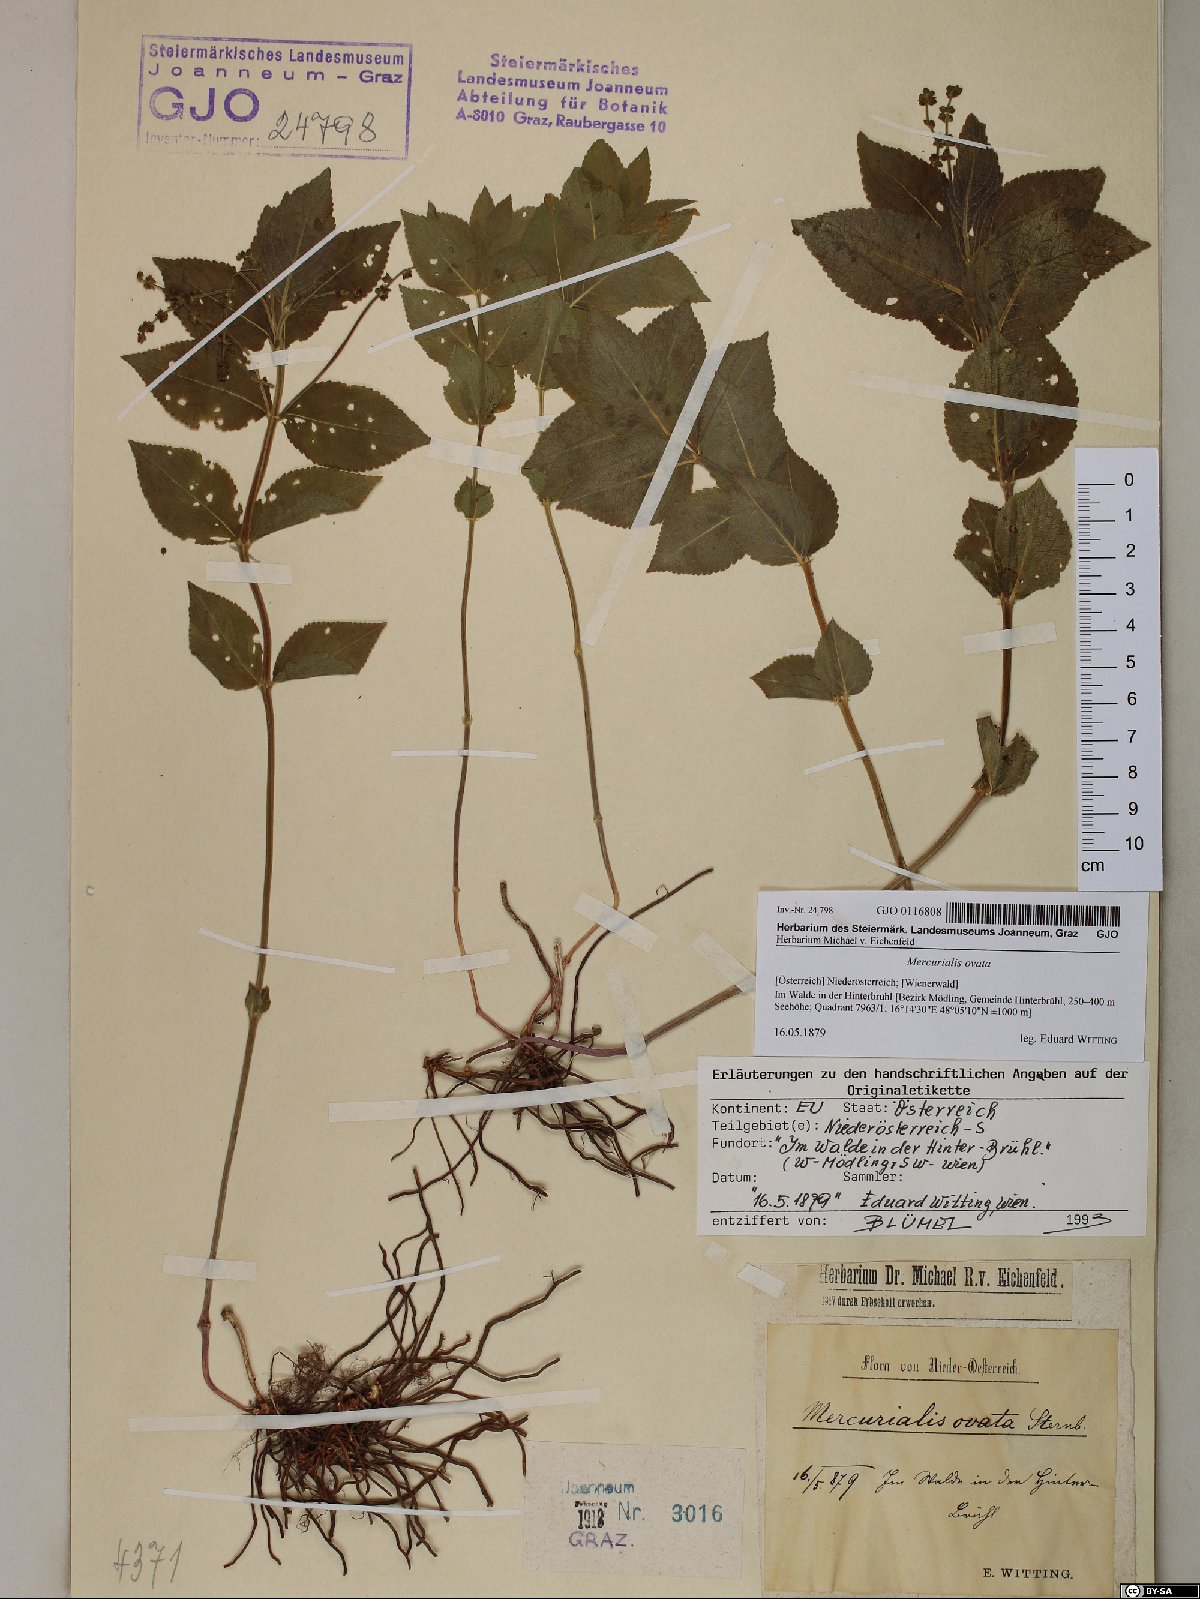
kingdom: Plantae
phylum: Tracheophyta
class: Magnoliopsida
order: Malpighiales
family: Euphorbiaceae
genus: Mercurialis
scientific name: Mercurialis ovata
